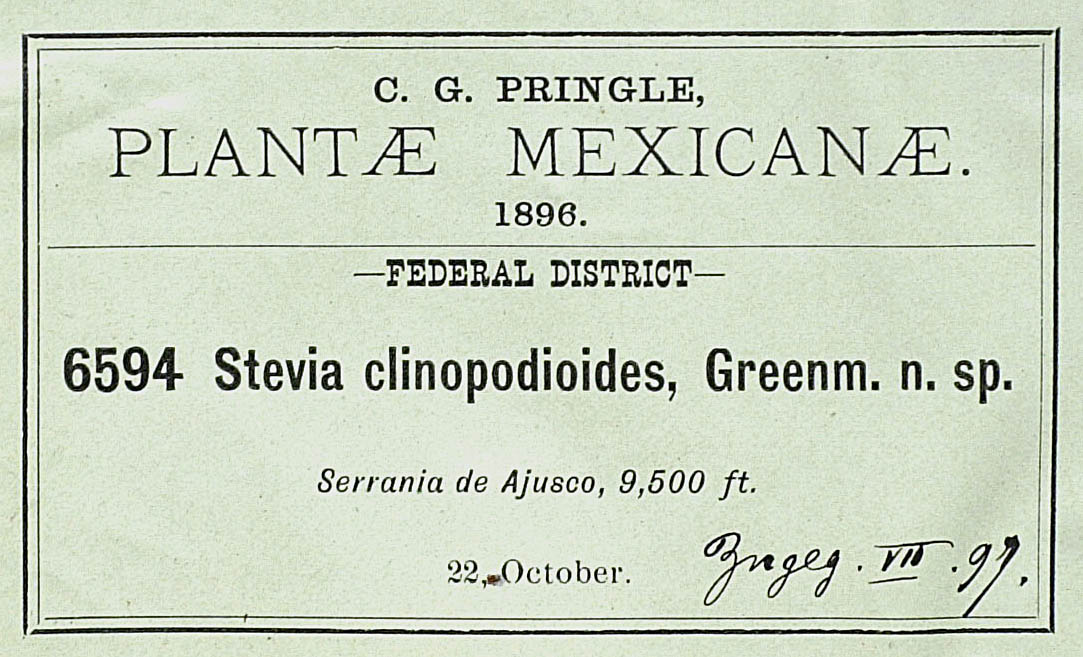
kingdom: Plantae
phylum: Tracheophyta
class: Magnoliopsida
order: Asterales
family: Asteraceae
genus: Stevia
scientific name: Stevia clinopodioides
